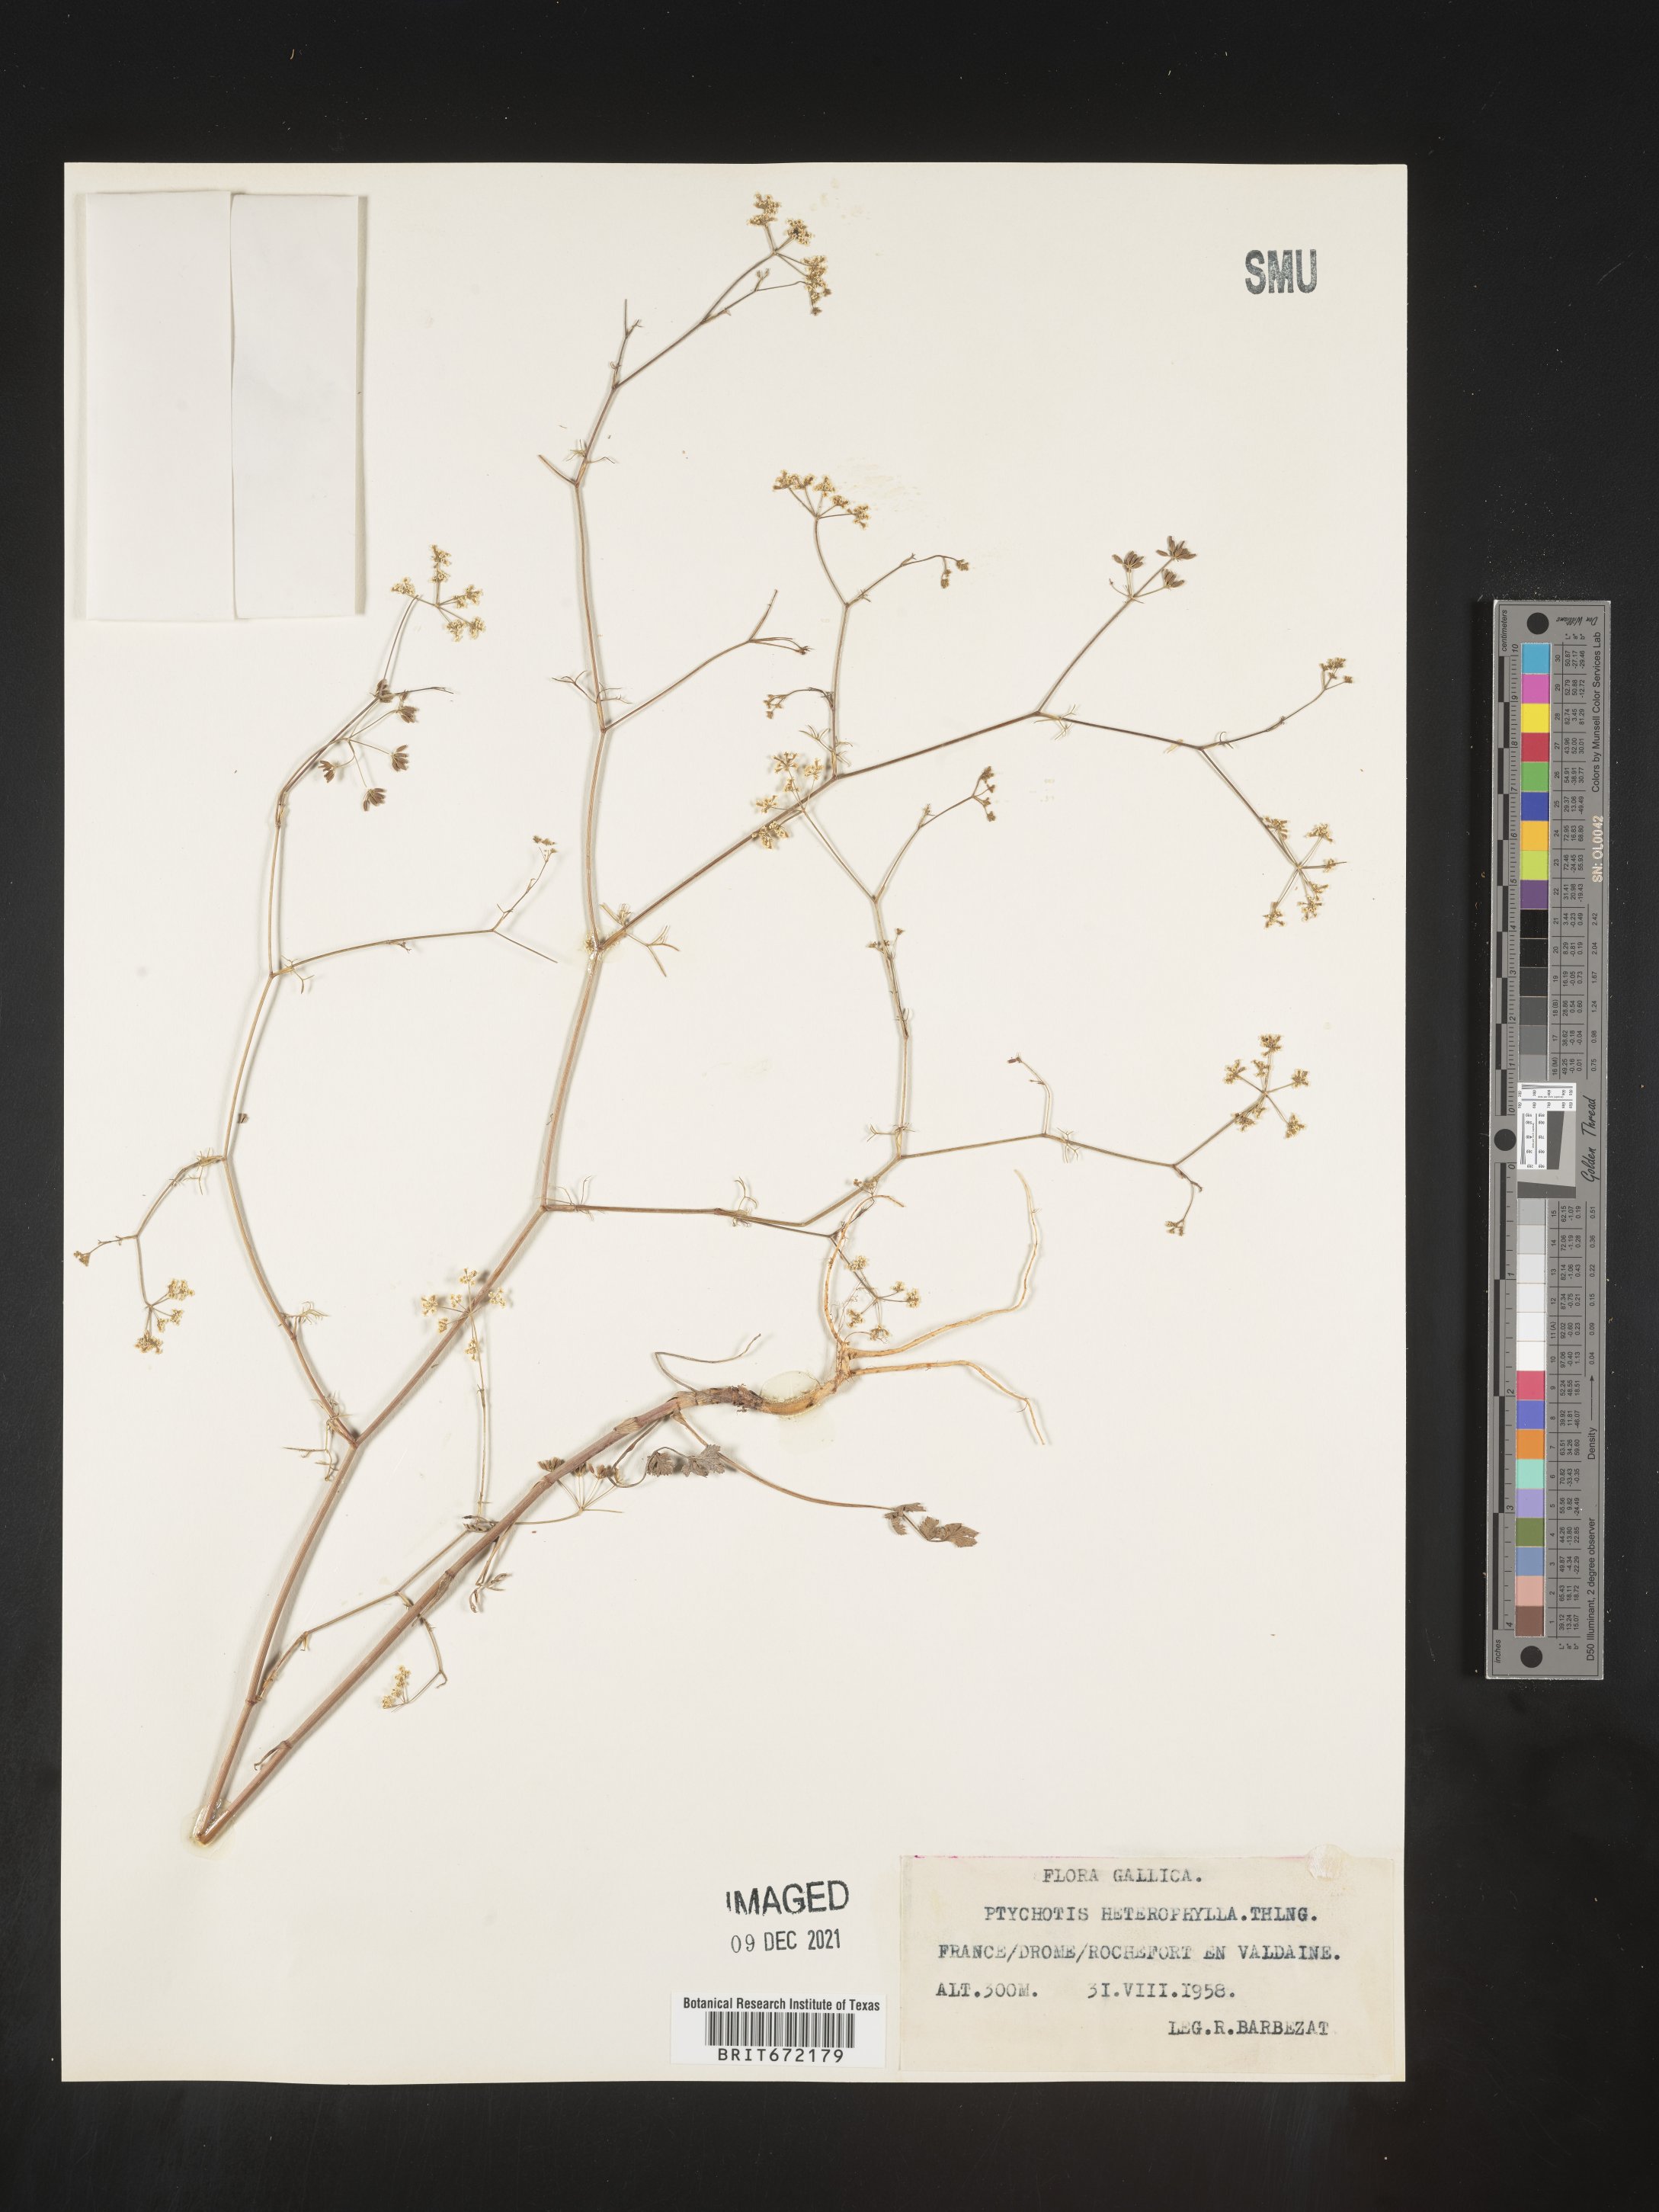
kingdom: Plantae
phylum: Tracheophyta
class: Magnoliopsida
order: Apiales
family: Apiaceae
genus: Ptychotis
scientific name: Ptychotis
